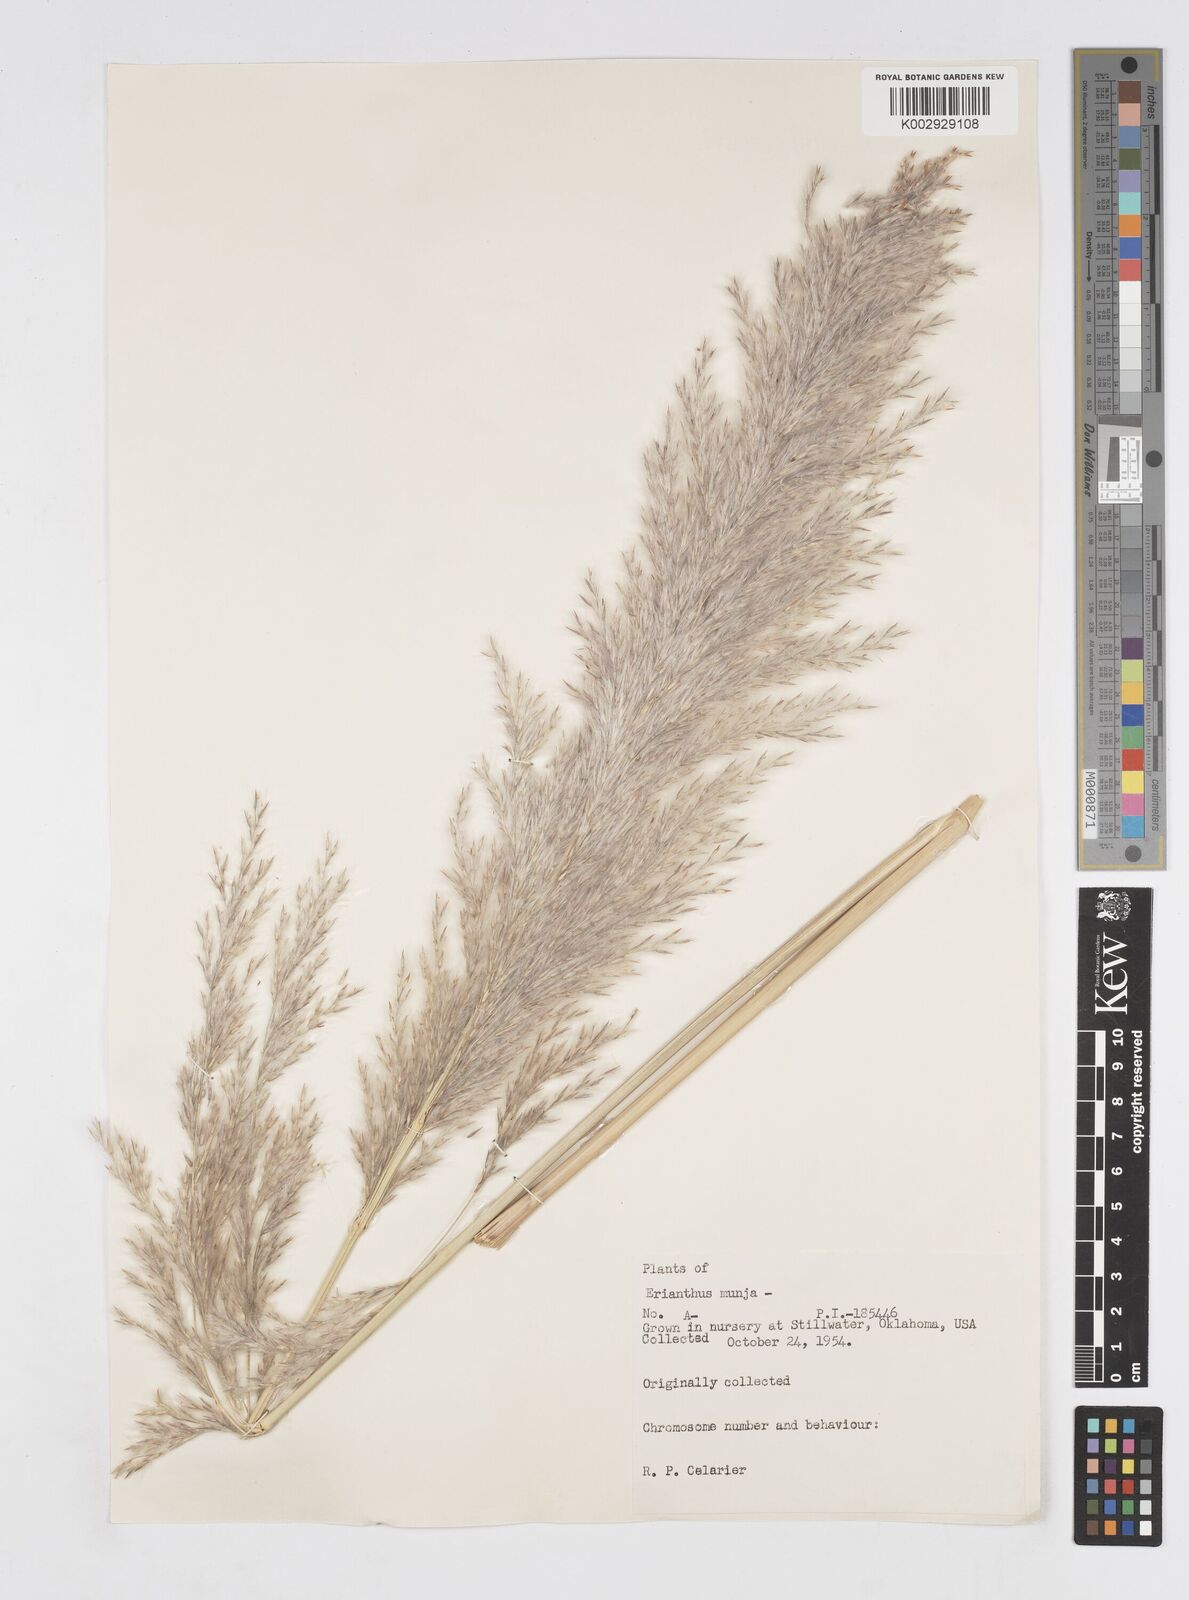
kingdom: Plantae
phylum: Tracheophyta
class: Liliopsida
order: Poales
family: Poaceae
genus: Saccharum
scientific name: Saccharum
